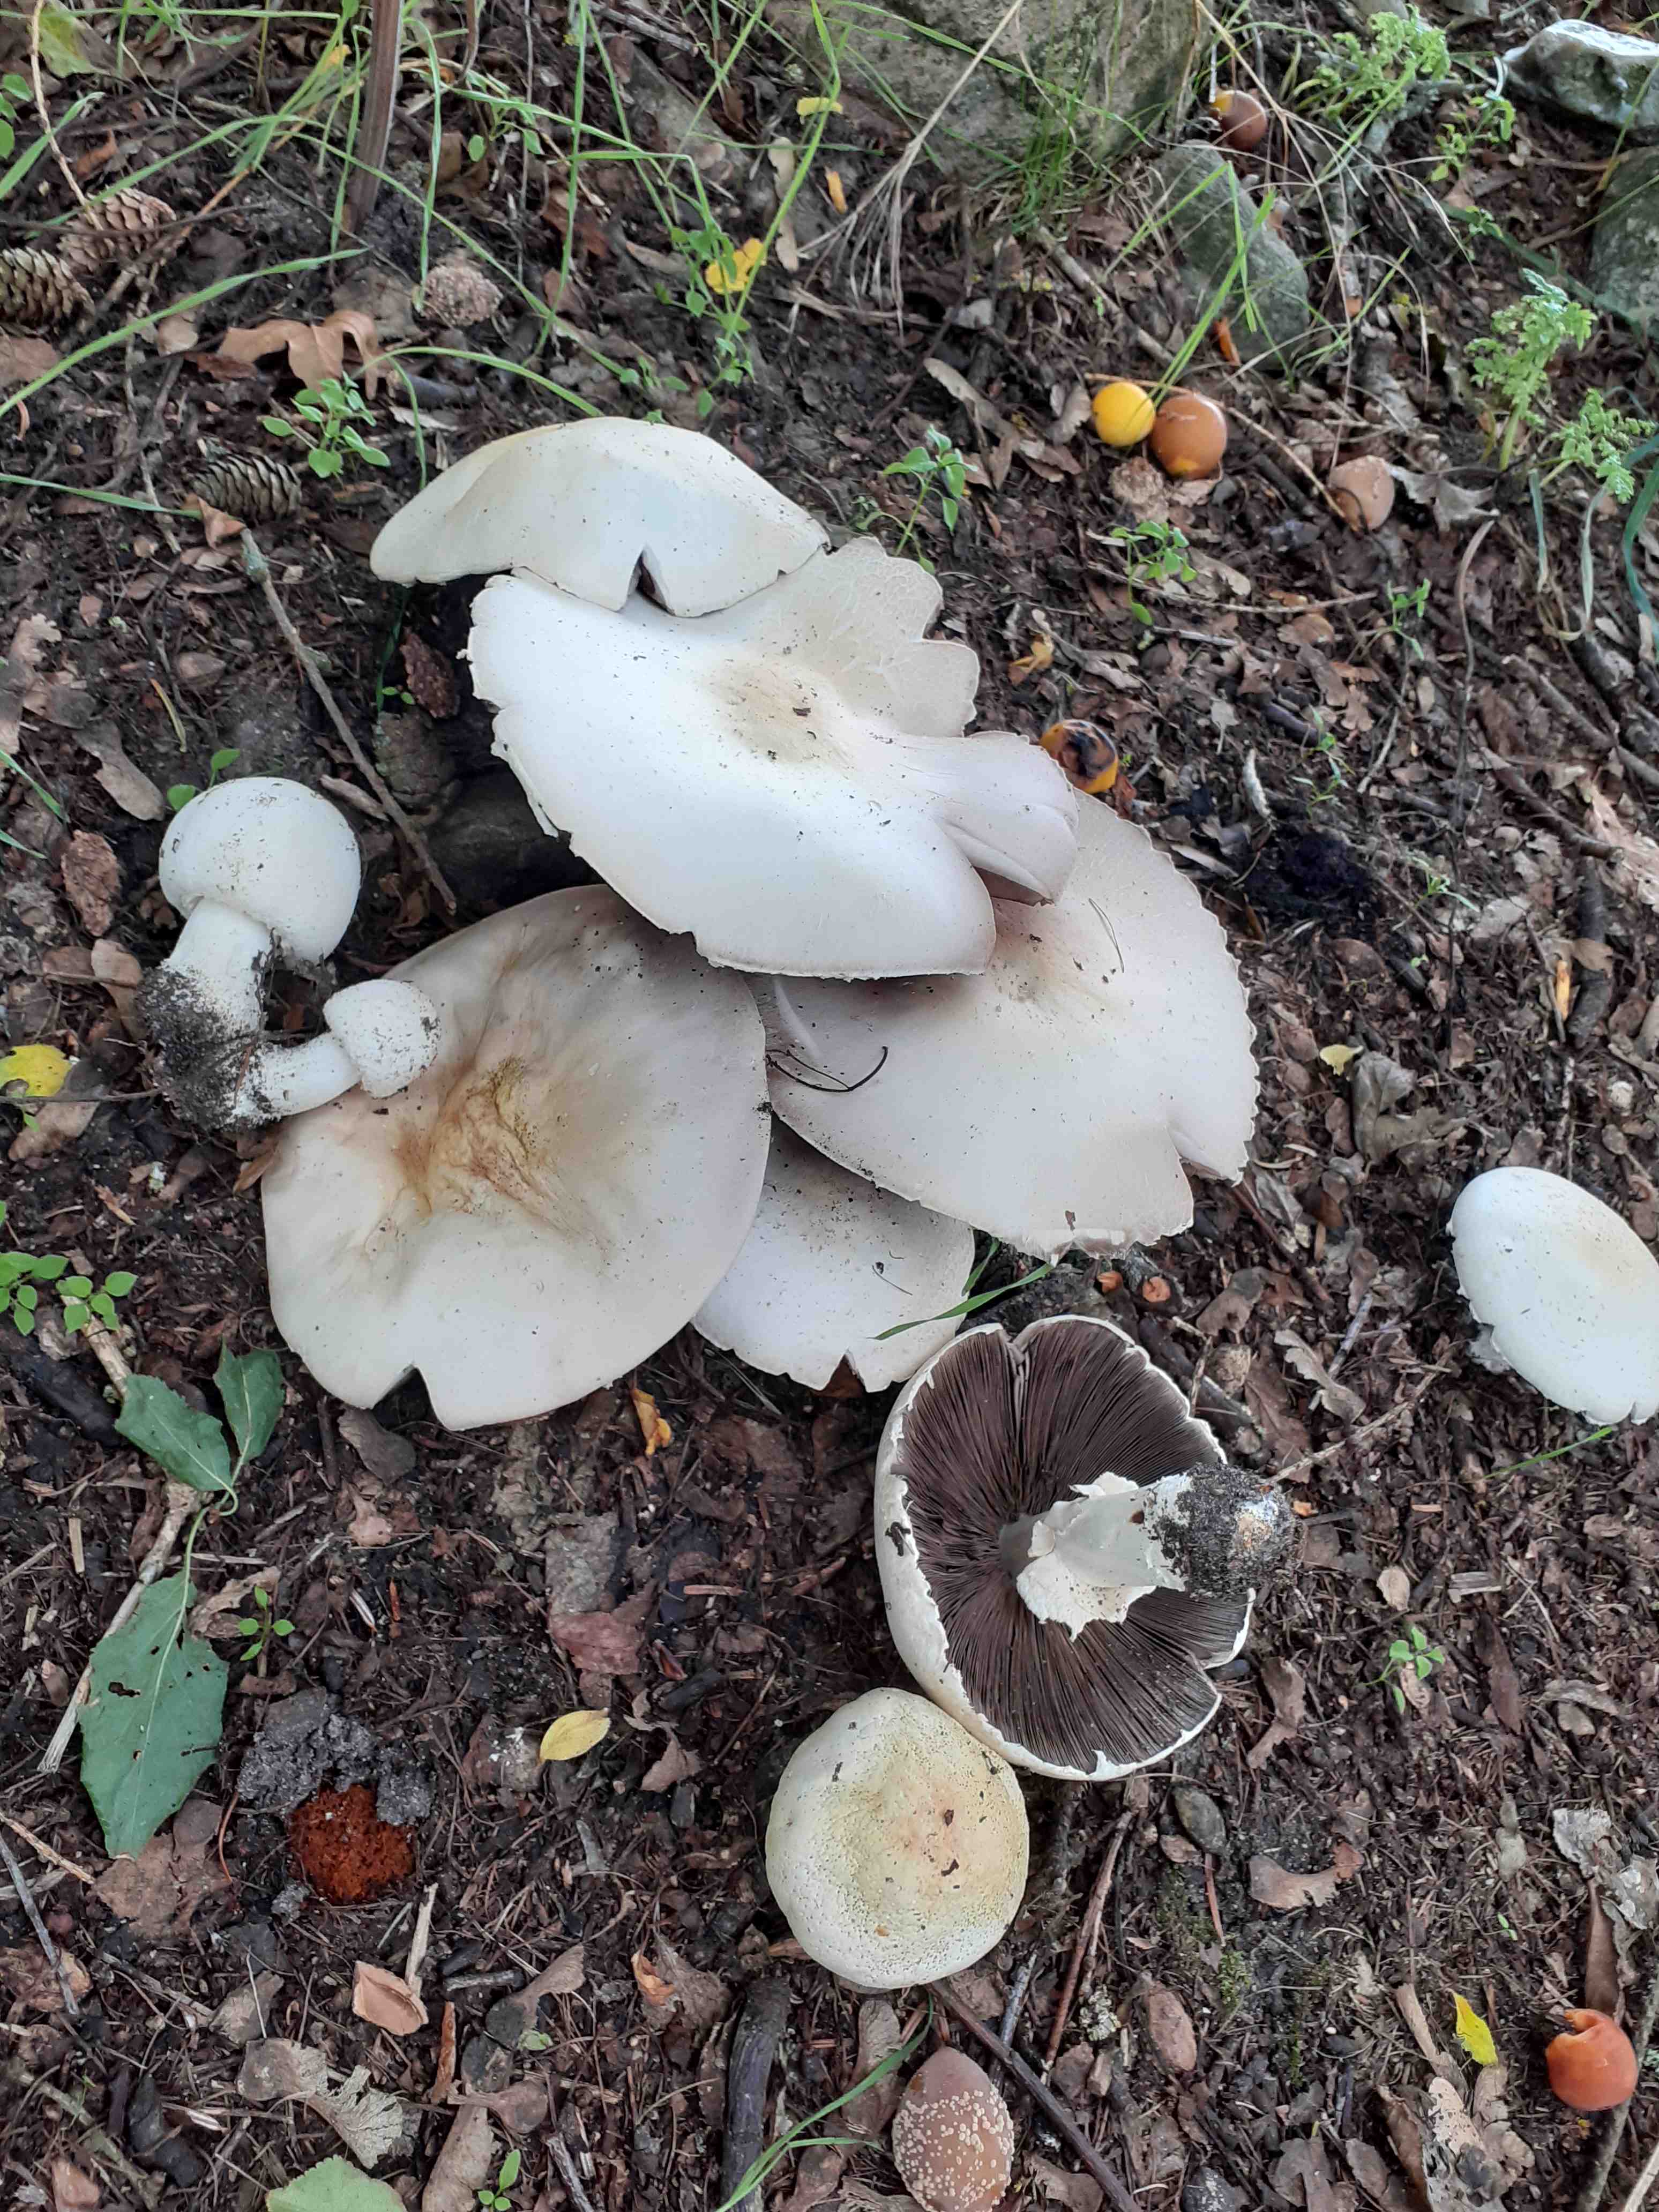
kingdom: Fungi
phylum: Basidiomycota
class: Agaricomycetes
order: Agaricales
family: Agaricaceae
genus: Agaricus
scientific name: Agaricus arvensis
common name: ager-champignon
